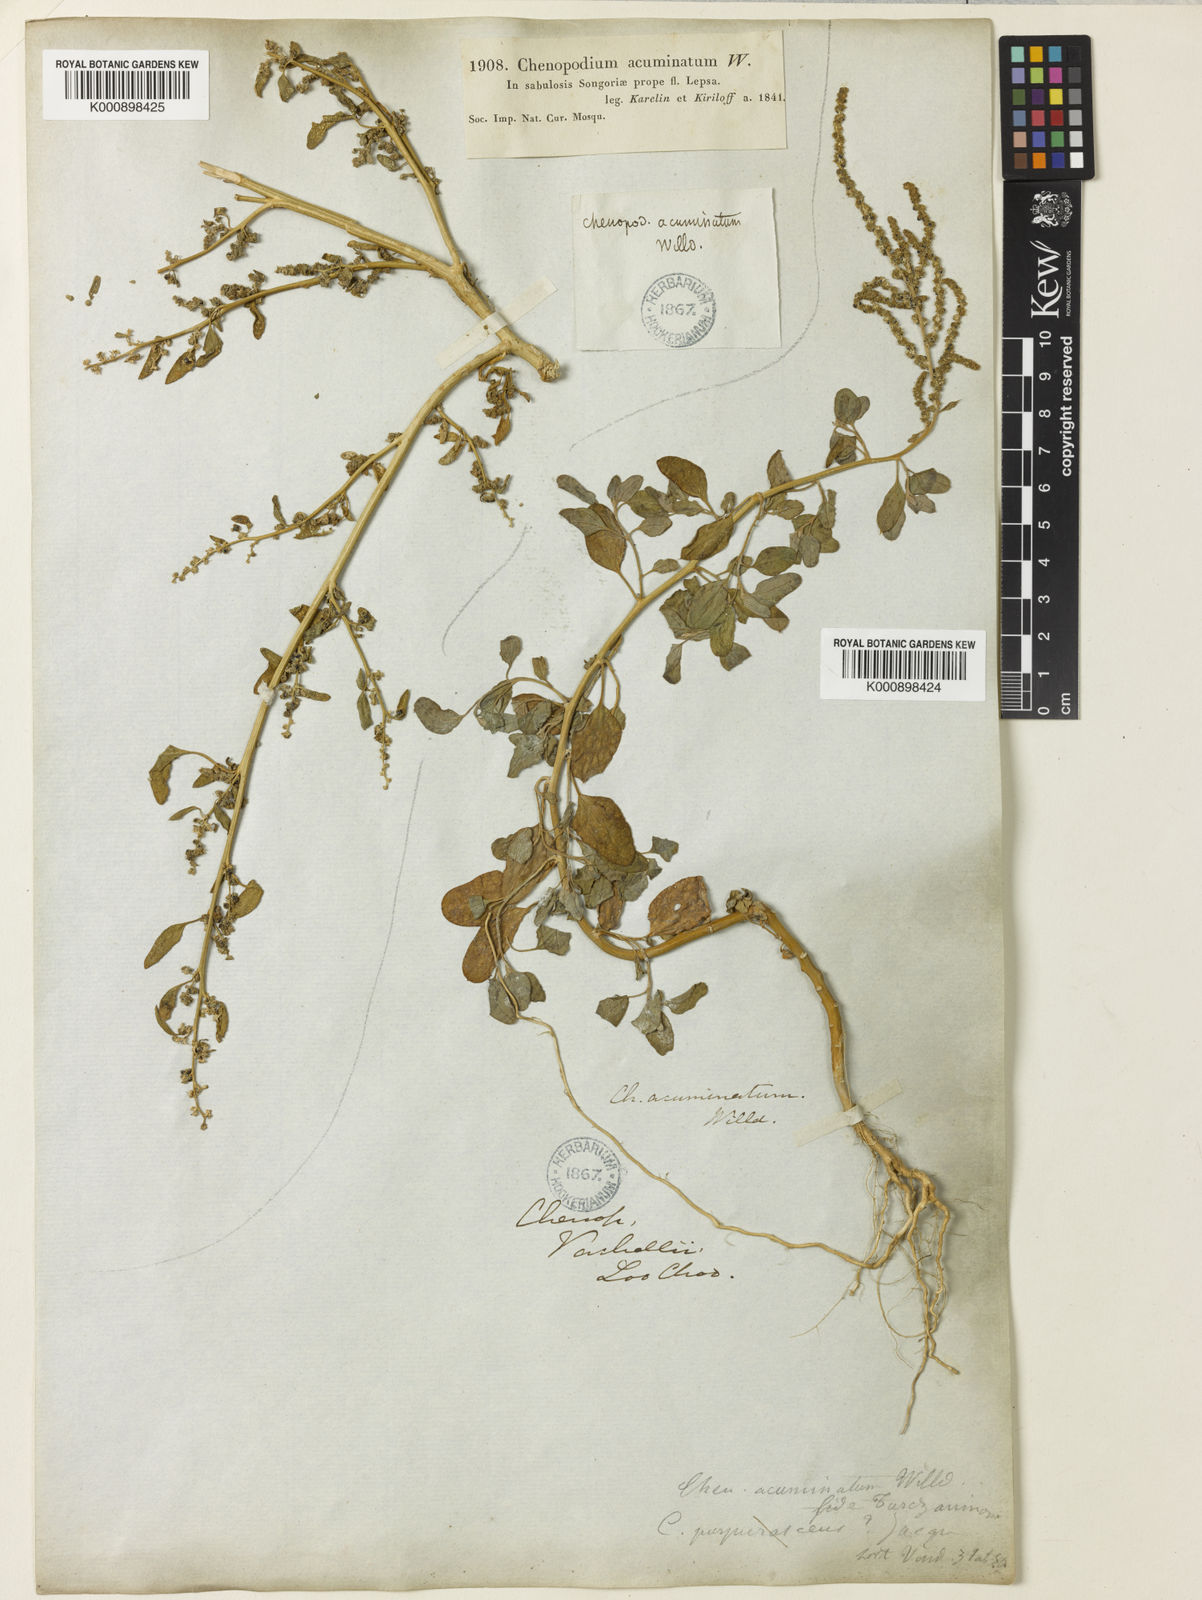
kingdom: Plantae
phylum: Tracheophyta
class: Magnoliopsida
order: Caryophyllales
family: Amaranthaceae
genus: Chenopodium
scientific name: Chenopodium acuminatum
